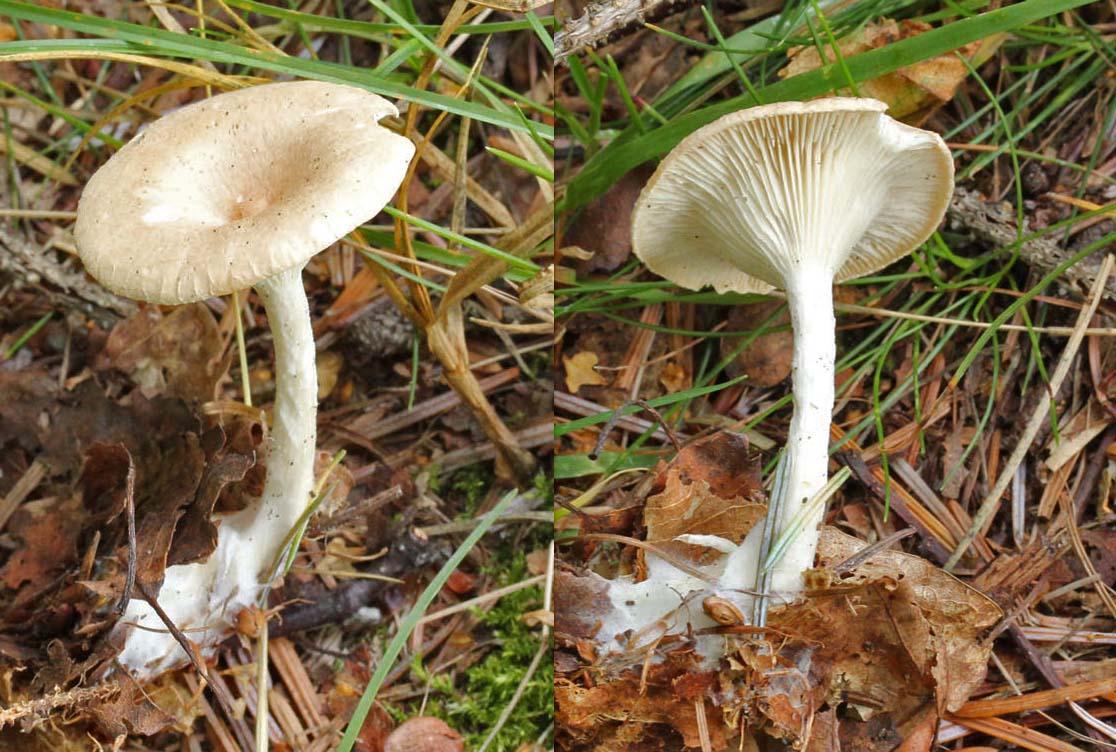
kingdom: Fungi
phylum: Basidiomycota
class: Agaricomycetes
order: Agaricales
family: Tricholomataceae
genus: Infundibulicybe
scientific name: Infundibulicybe gibba
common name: almindelig tragthat
